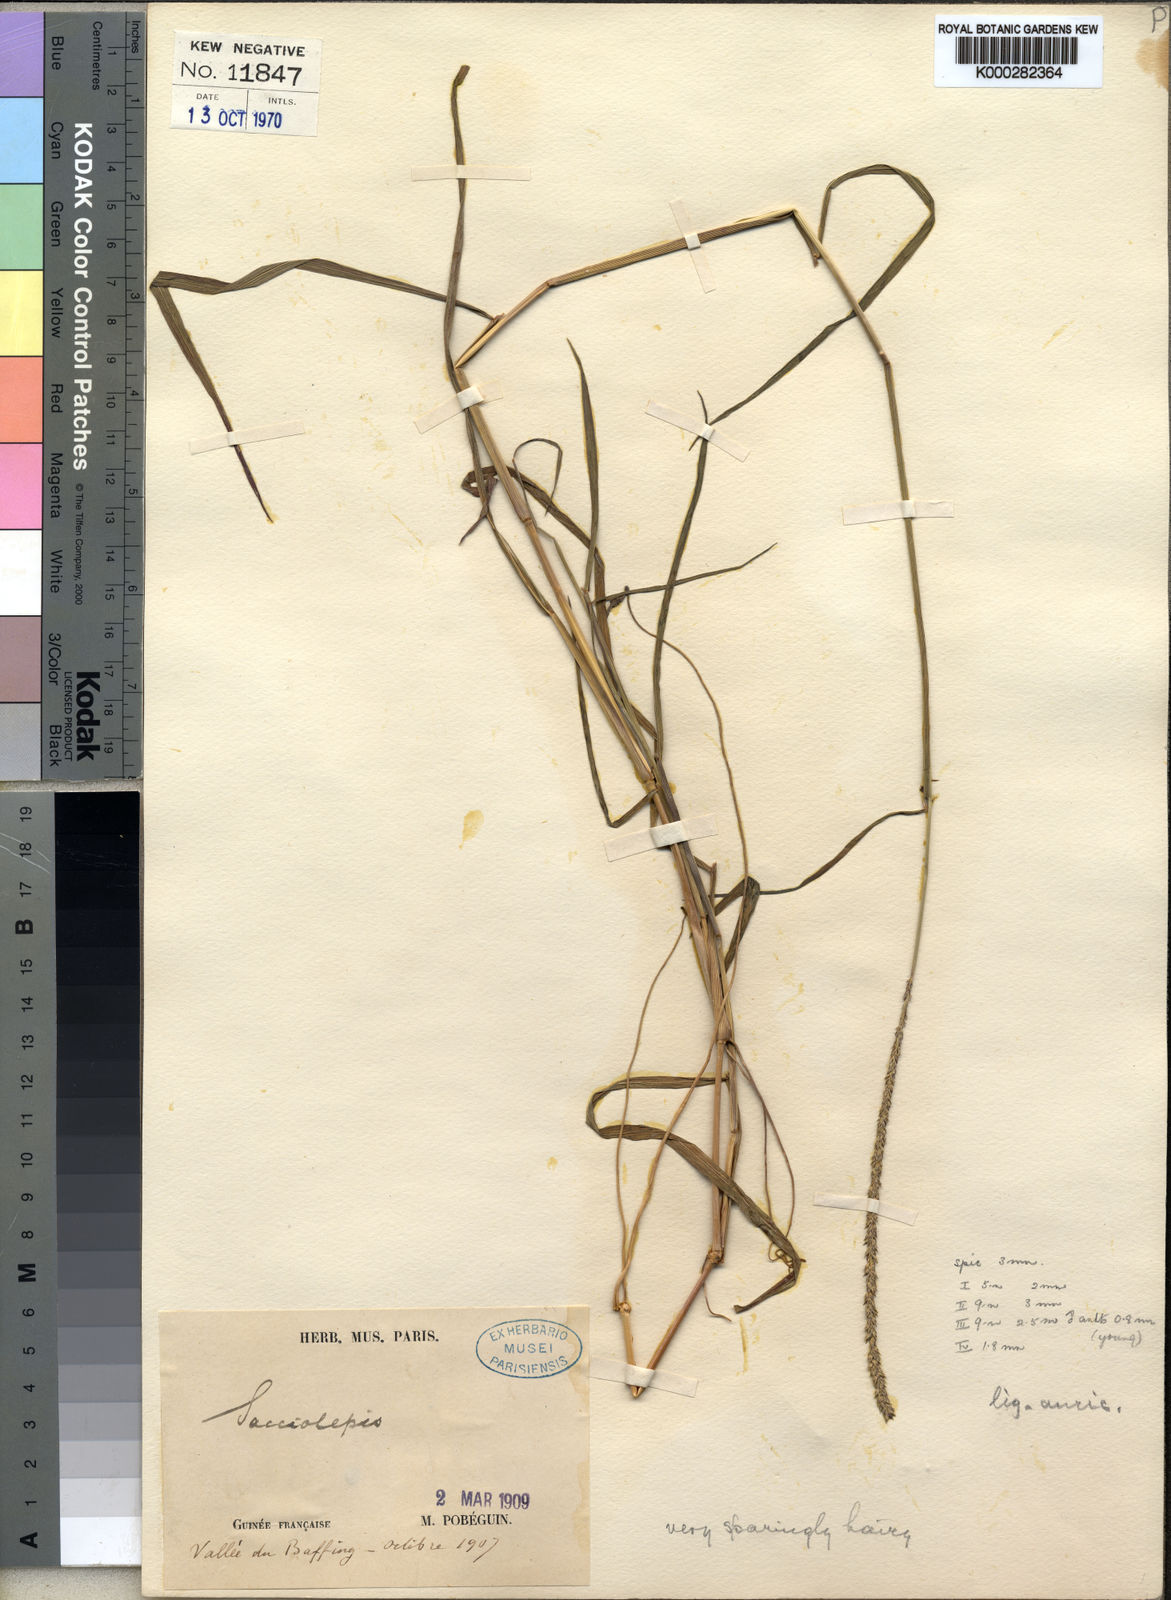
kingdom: Plantae
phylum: Tracheophyta
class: Liliopsida
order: Poales
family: Poaceae
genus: Sacciolepis
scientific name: Sacciolepis indica
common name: Glenwoodgrass
